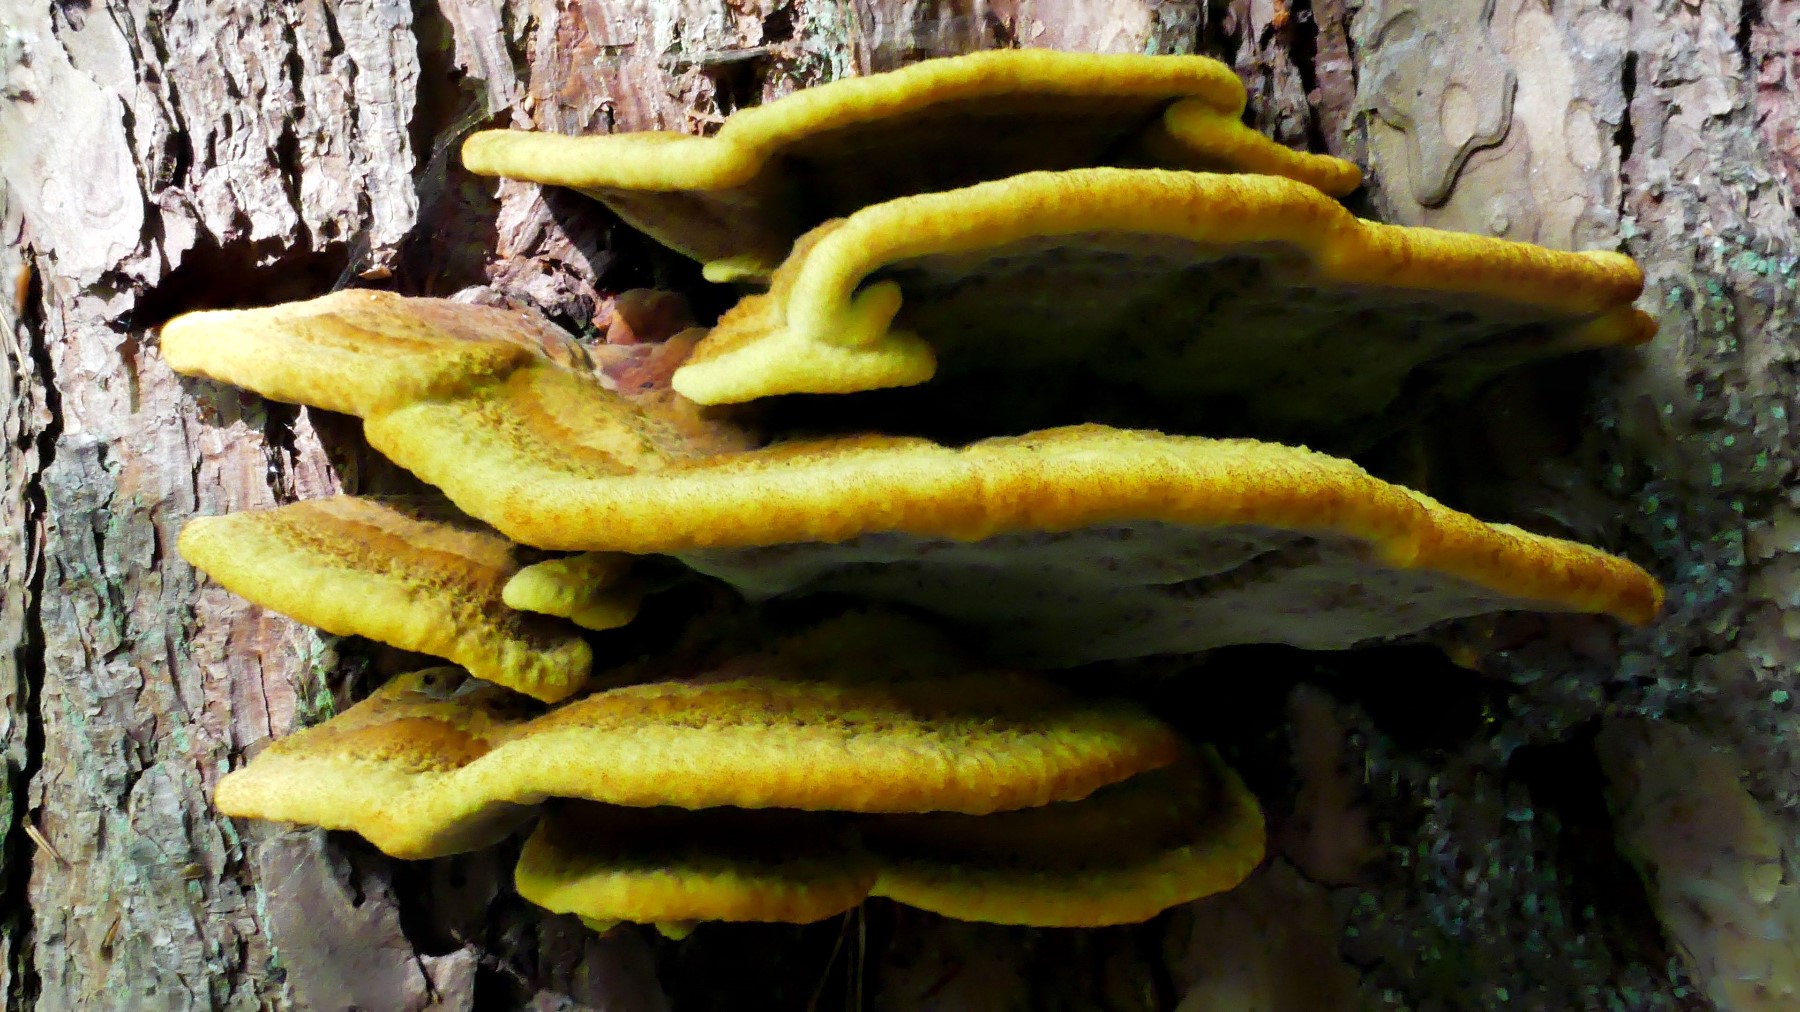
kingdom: Fungi
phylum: Basidiomycota
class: Agaricomycetes
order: Polyporales
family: Laetiporaceae
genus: Phaeolus
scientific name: Phaeolus schweinitzii
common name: brunporesvamp
